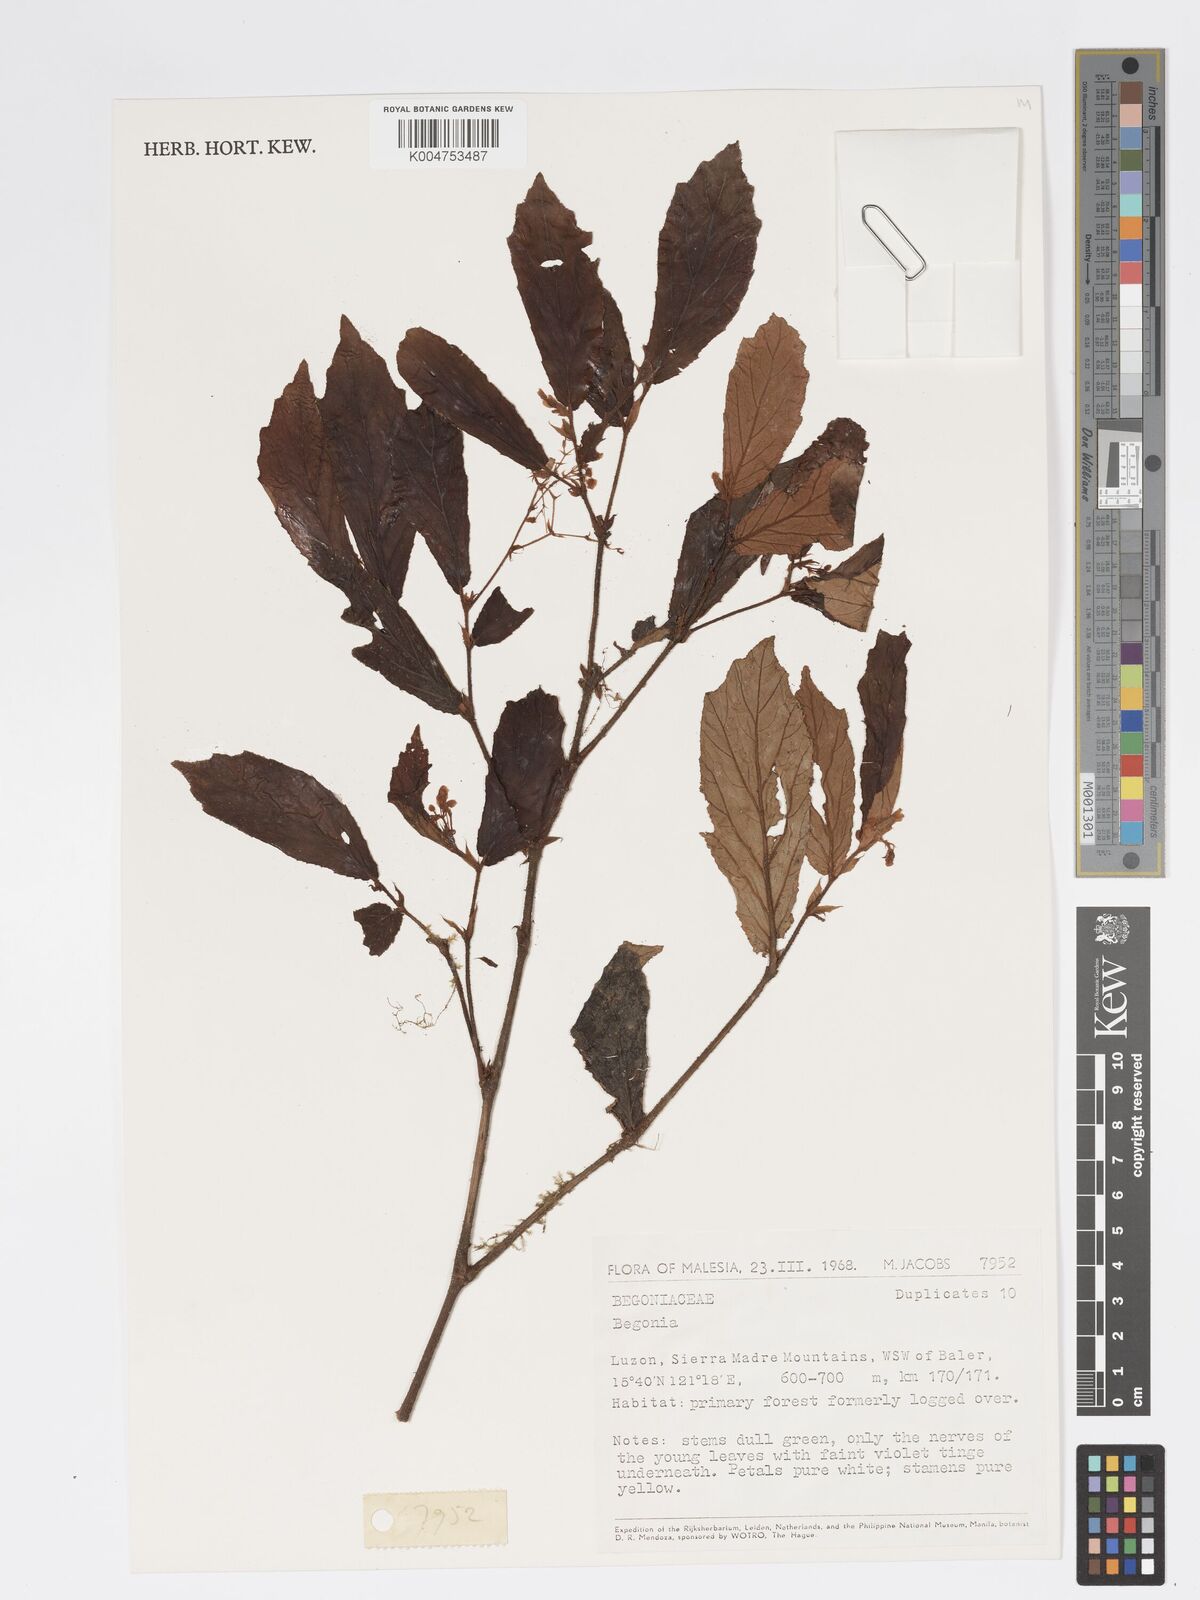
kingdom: Plantae
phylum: Tracheophyta
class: Magnoliopsida
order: Cucurbitales
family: Begoniaceae
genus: Begonia
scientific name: Begonia
